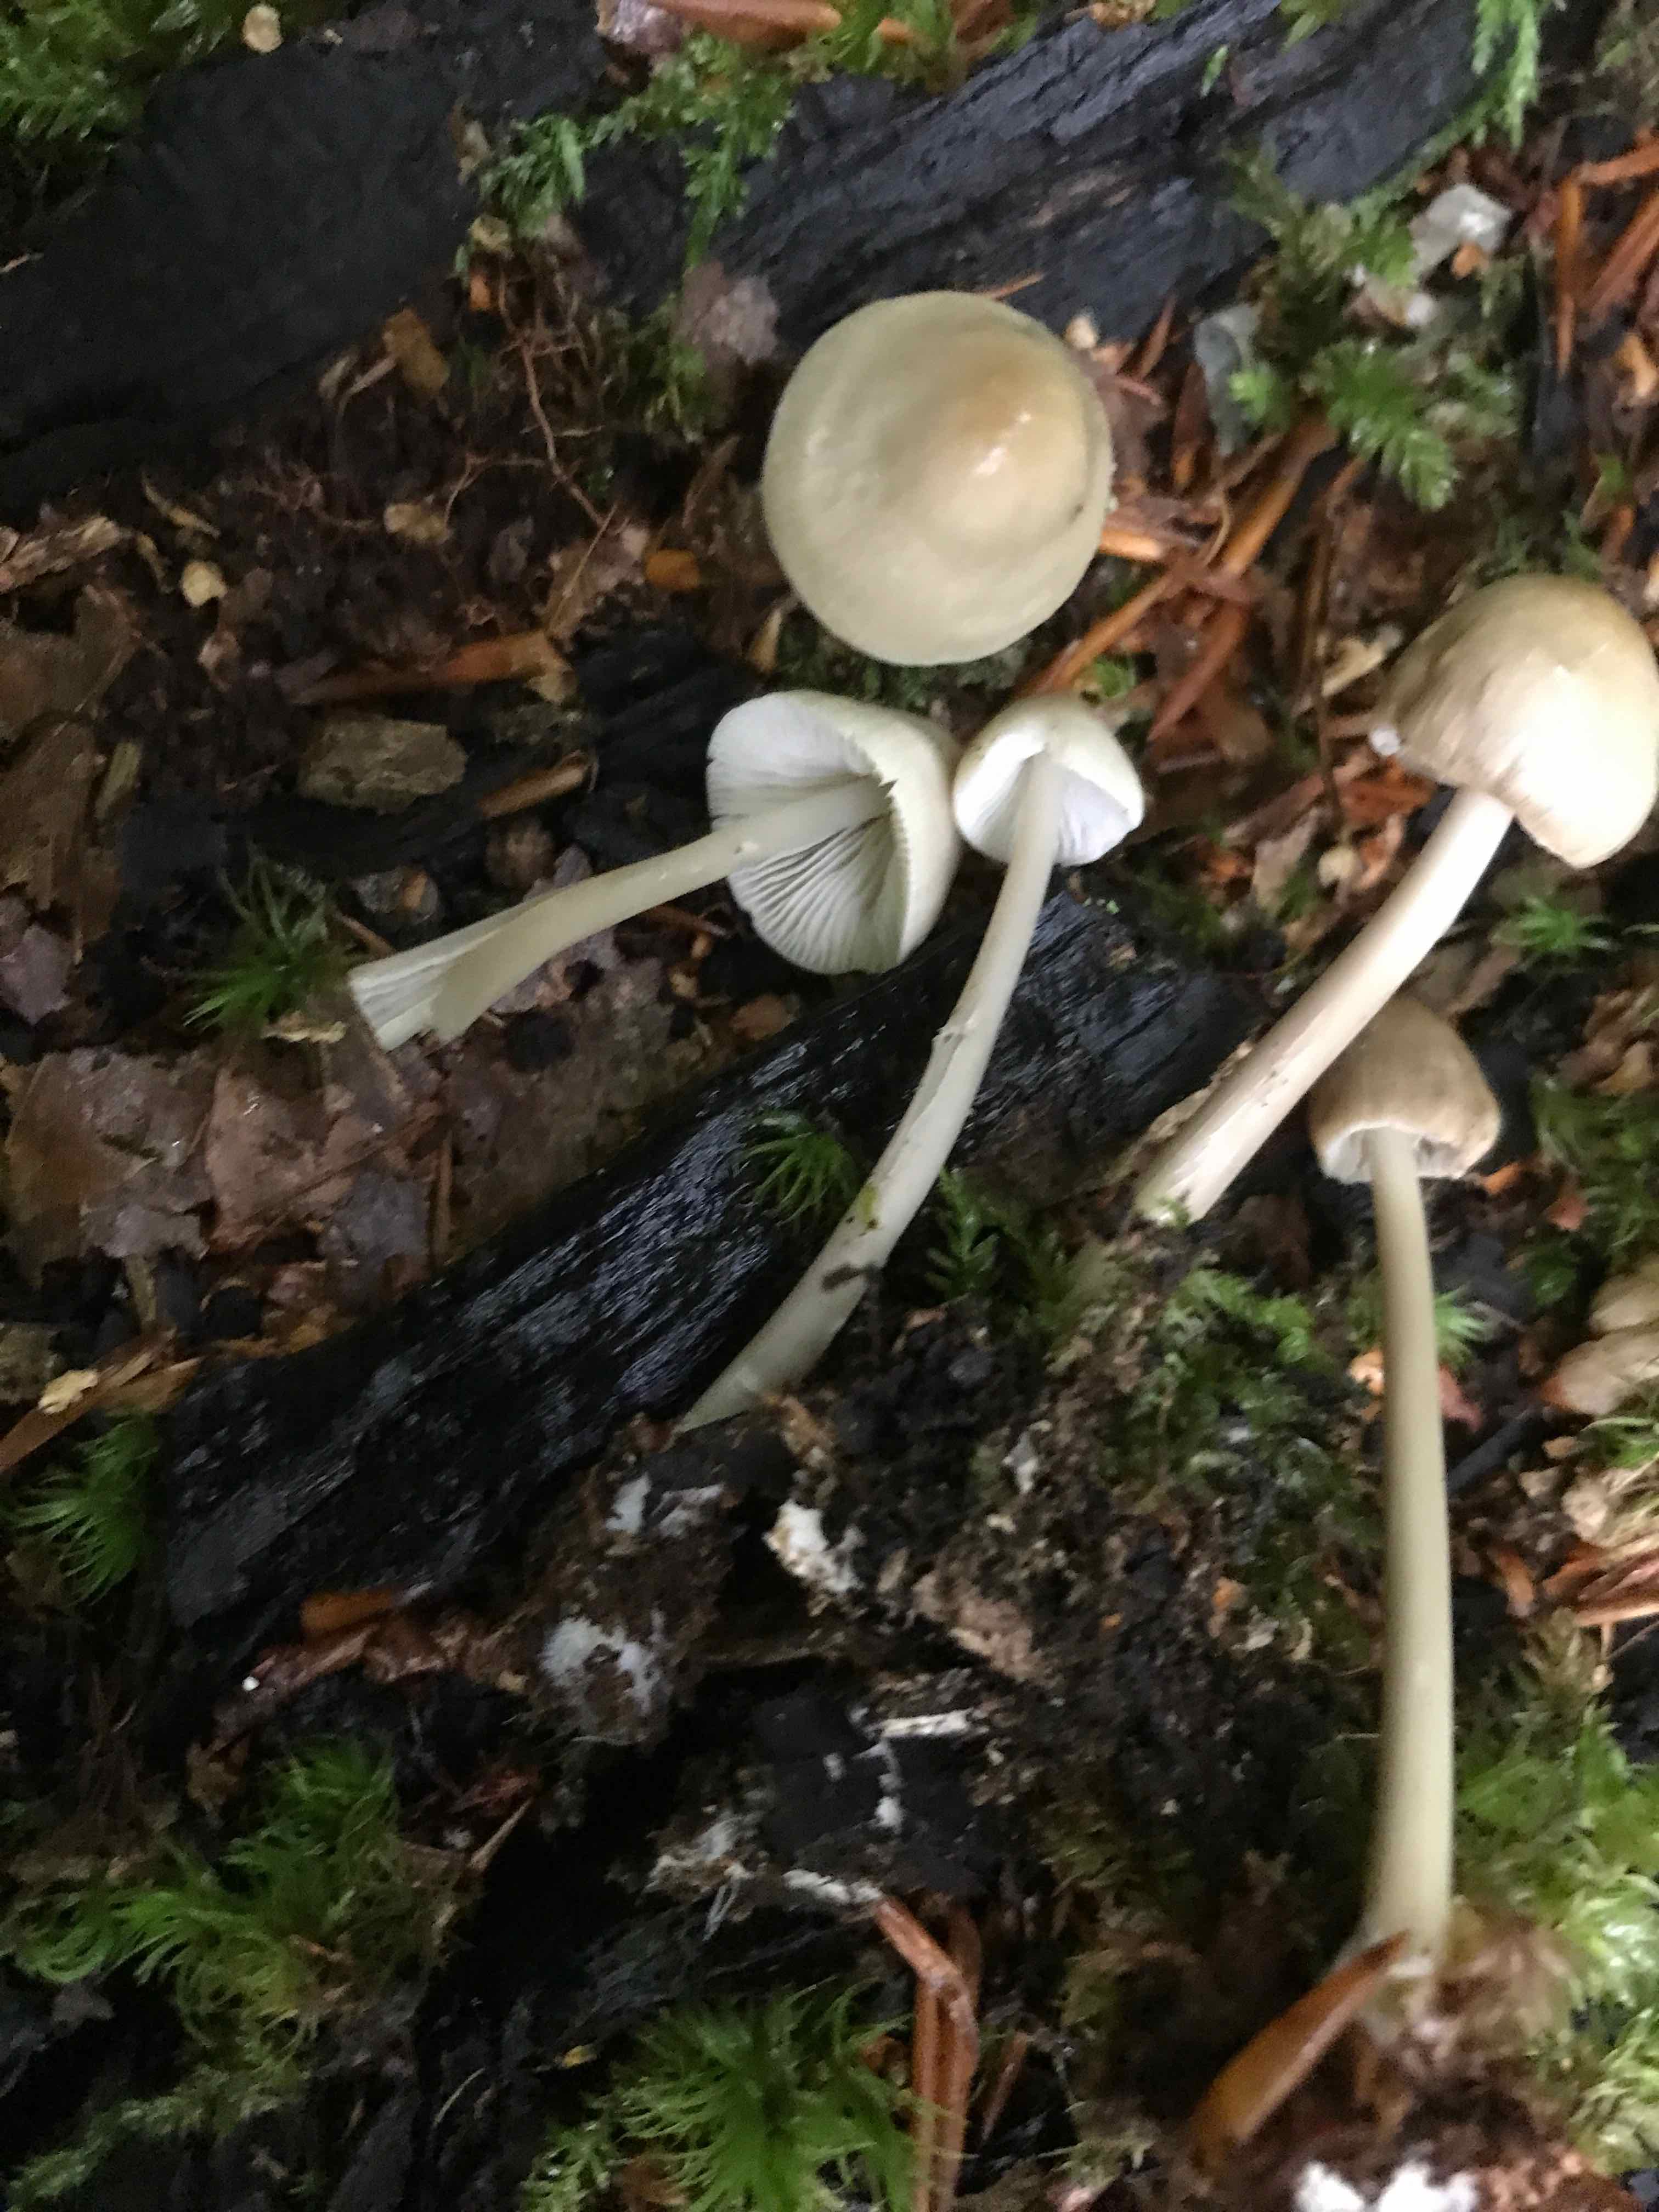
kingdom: Fungi
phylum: Basidiomycota
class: Agaricomycetes
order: Agaricales
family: Mycenaceae
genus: Mycena
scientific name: Mycena galericulata
